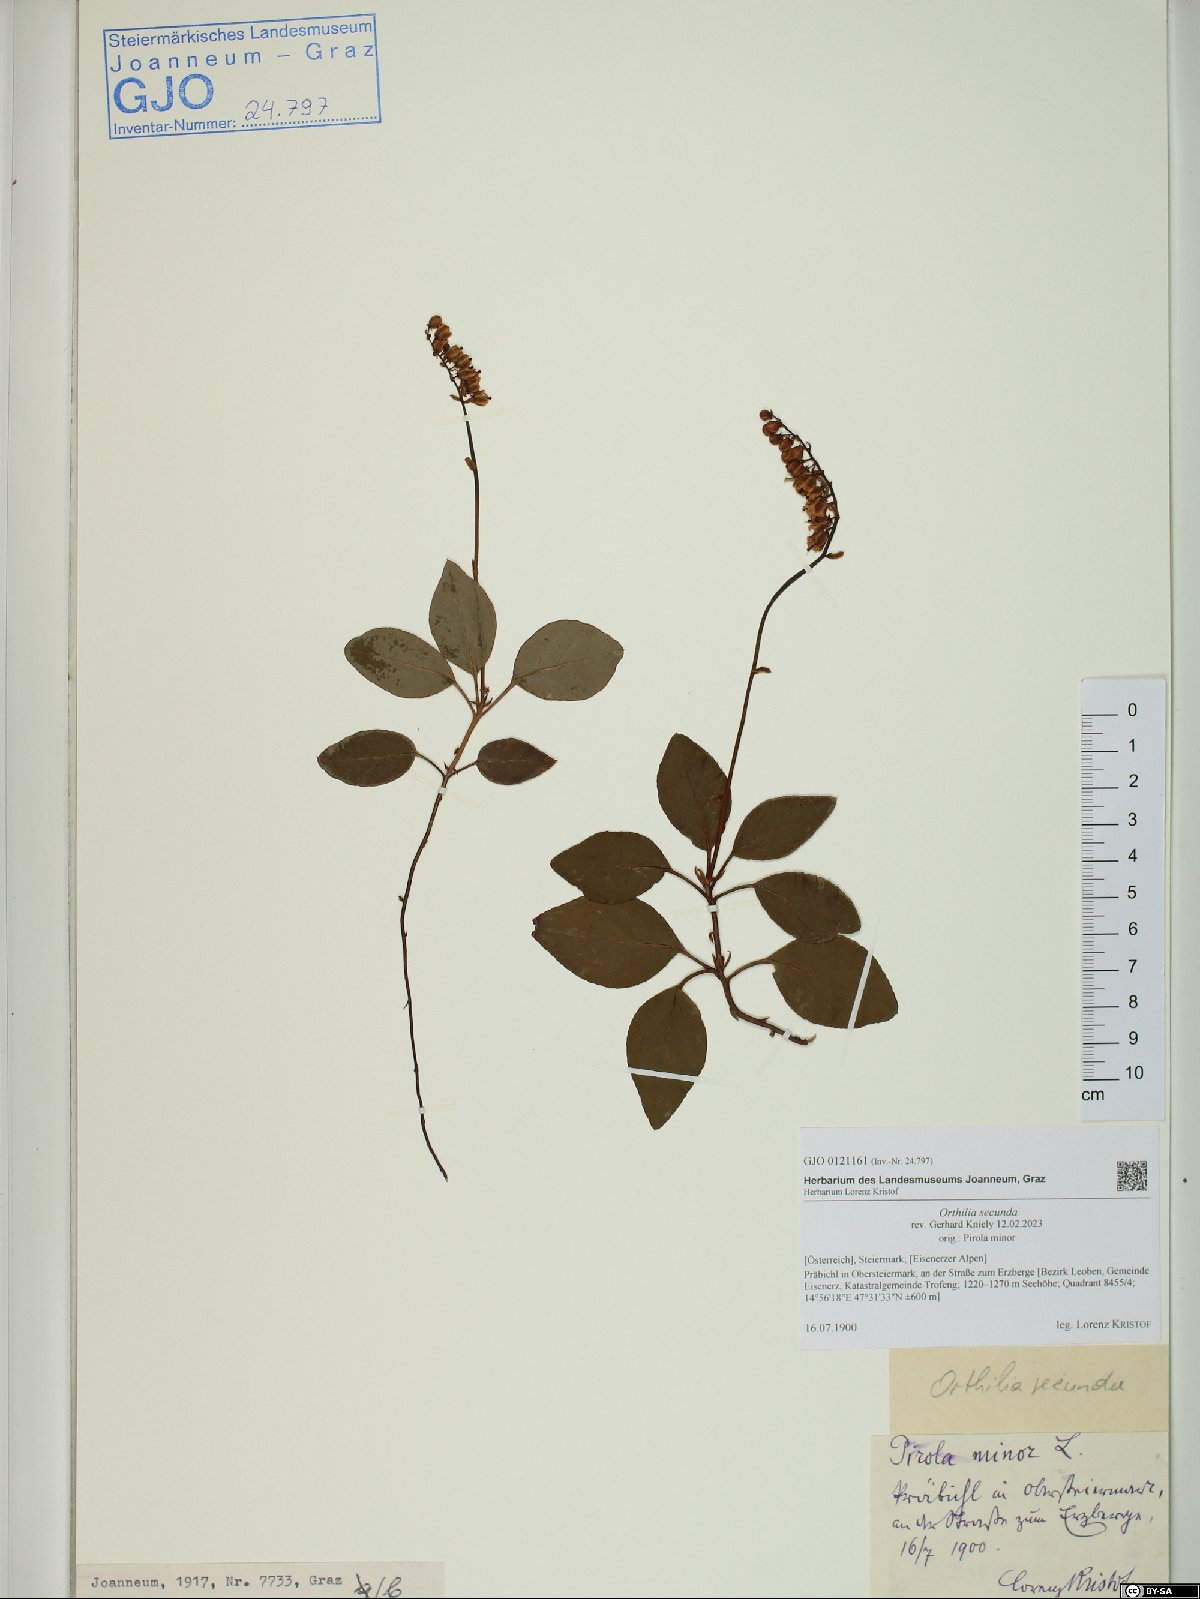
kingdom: Plantae
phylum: Tracheophyta
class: Magnoliopsida
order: Ericales
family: Ericaceae
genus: Orthilia
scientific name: Orthilia secunda
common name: One-sided orthilia
